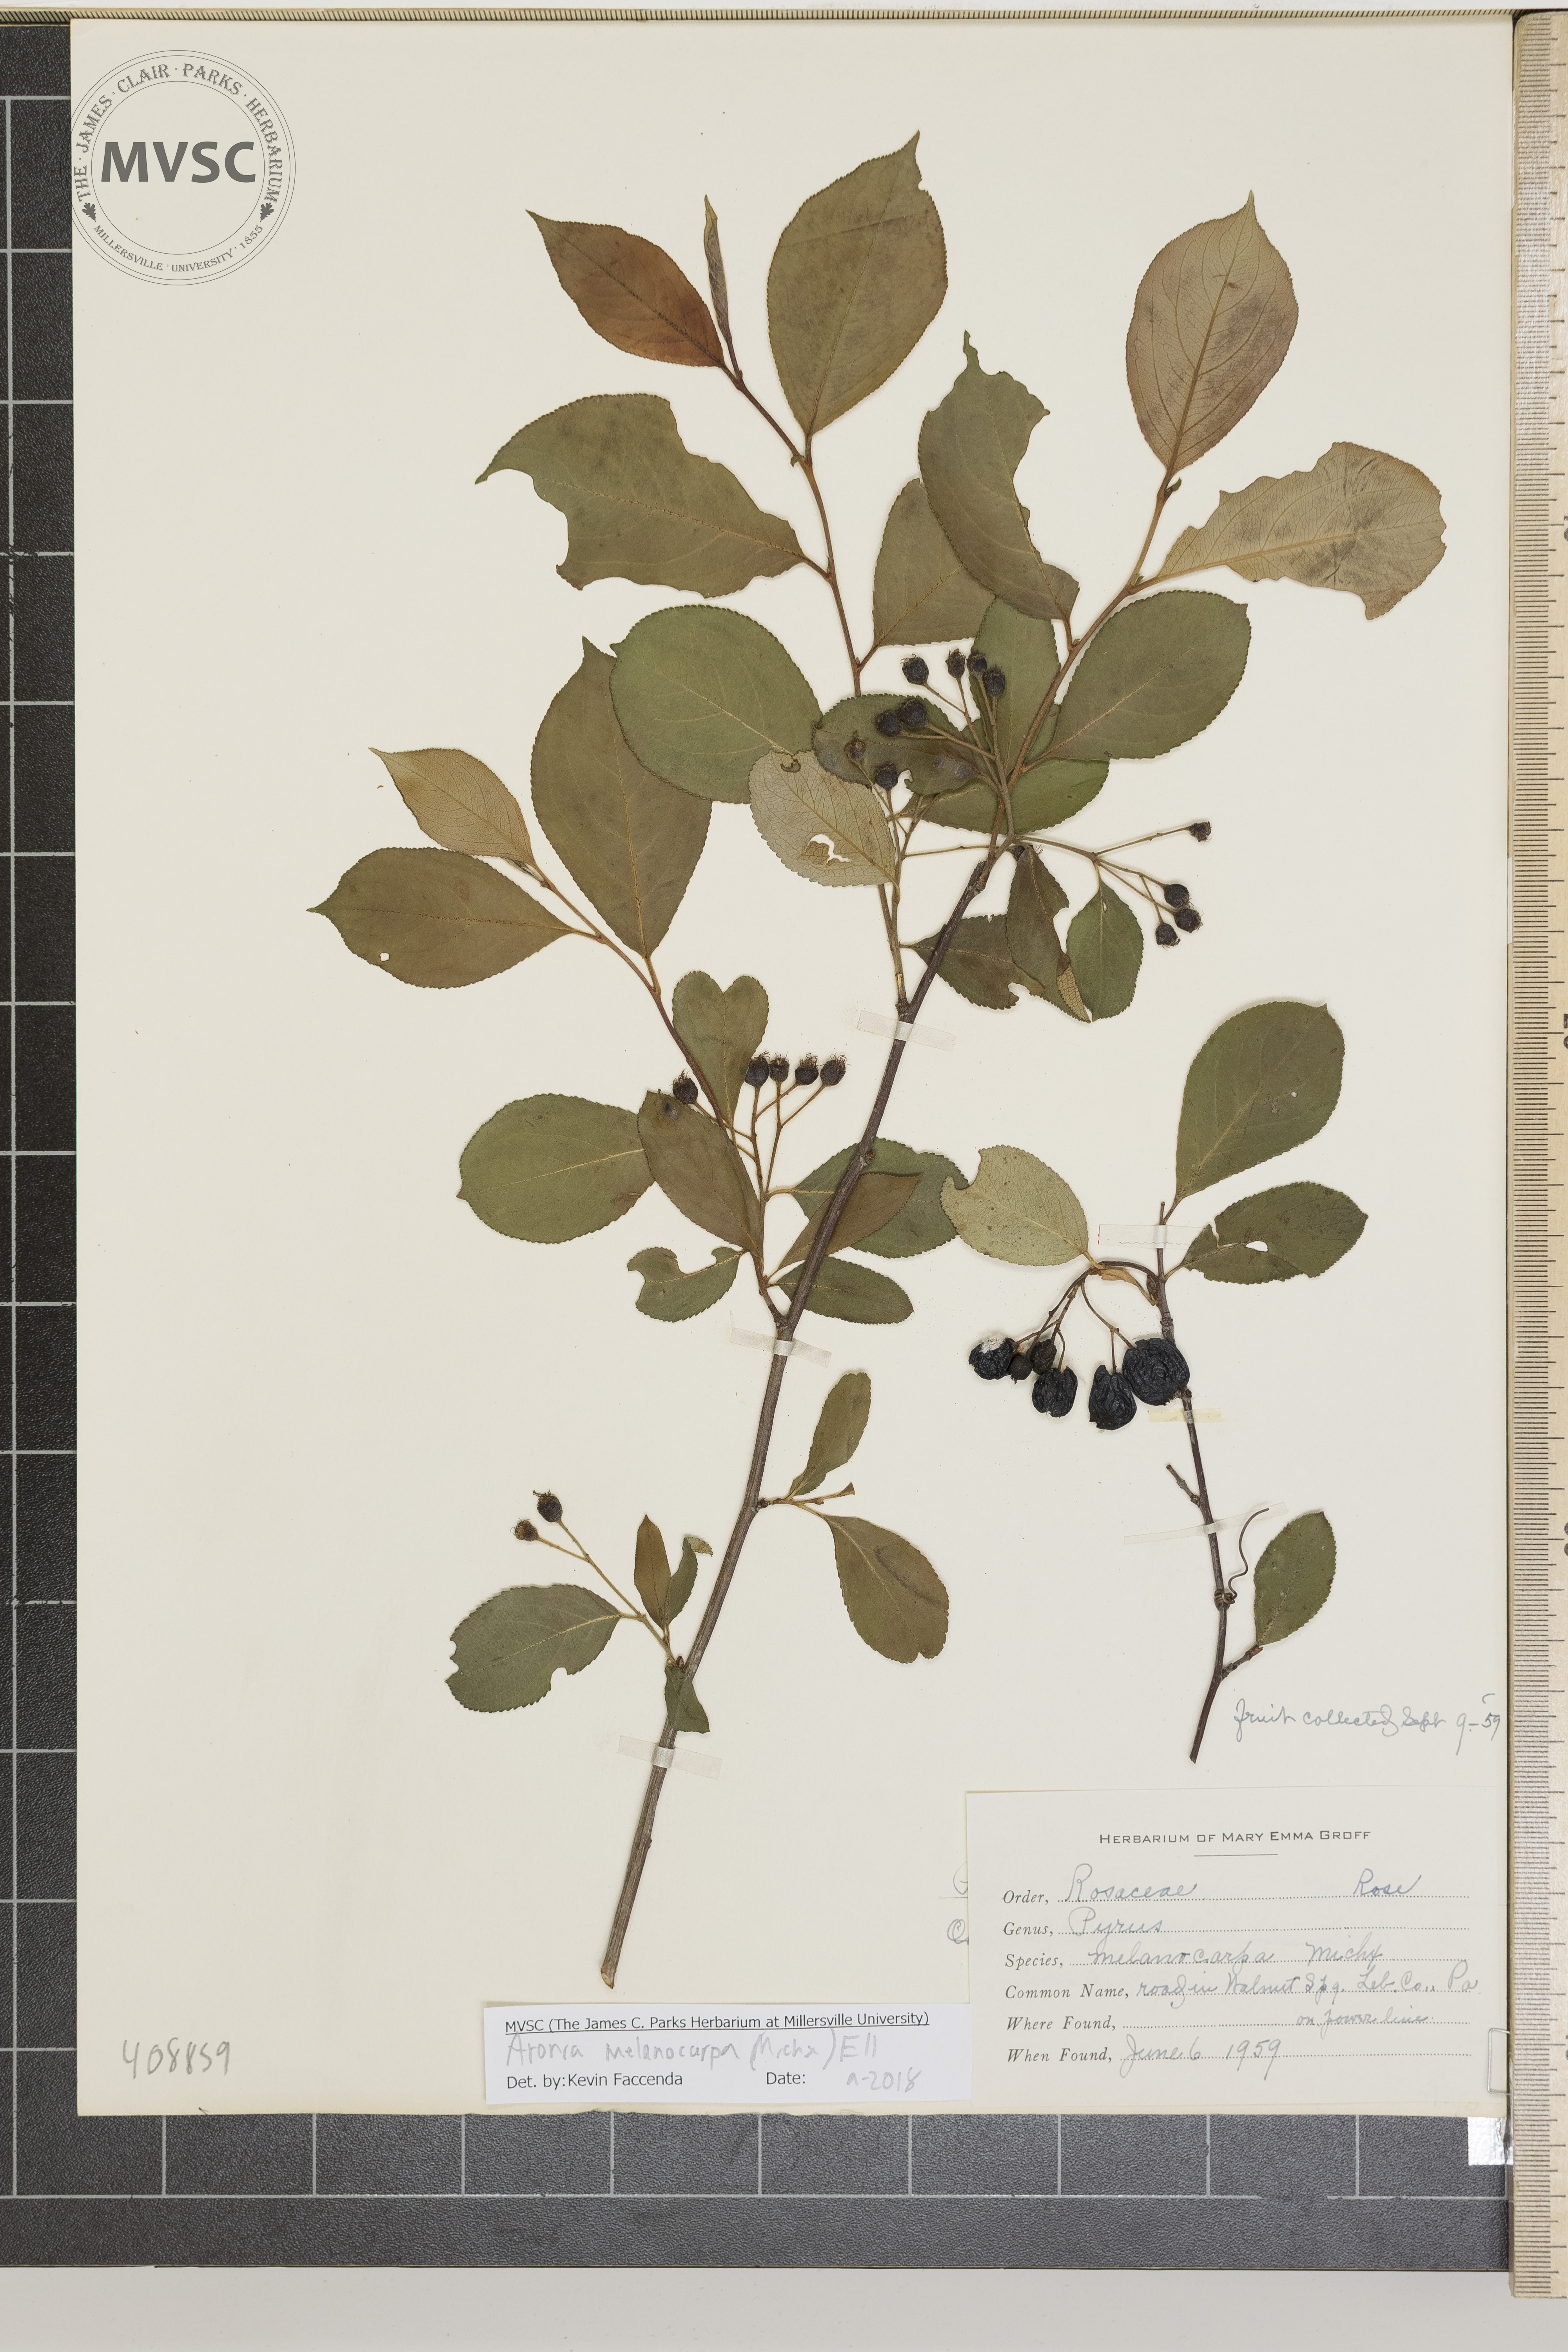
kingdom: Plantae
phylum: Tracheophyta
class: Magnoliopsida
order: Rosales
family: Rosaceae
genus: Aronia
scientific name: Aronia melanocarpa
